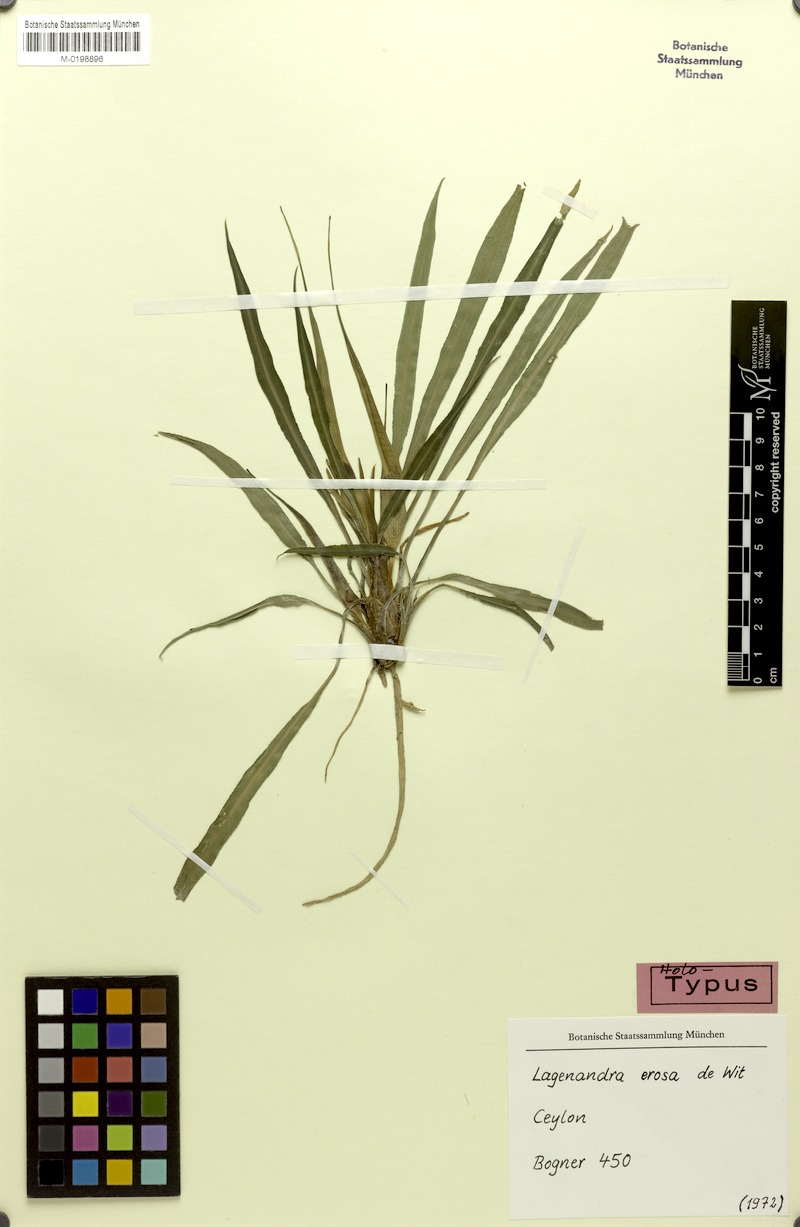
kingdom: Plantae
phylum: Tracheophyta
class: Liliopsida
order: Alismatales
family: Araceae
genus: Lagenandra
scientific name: Lagenandra erosa
